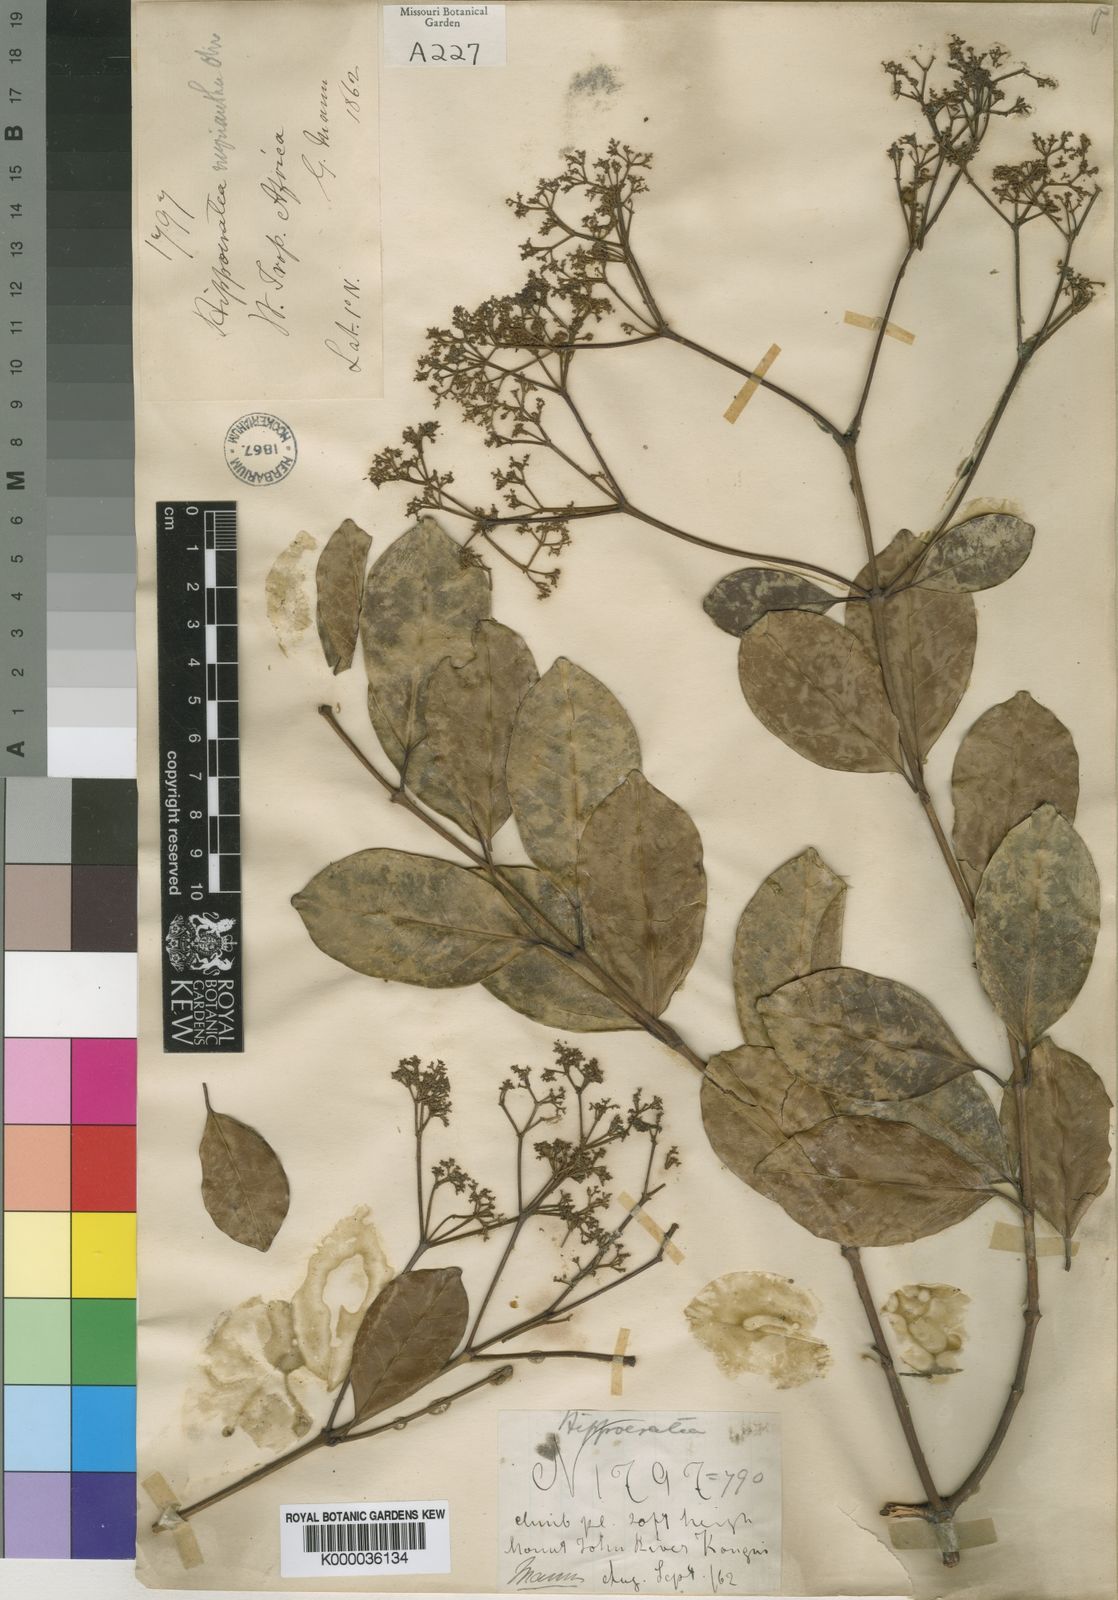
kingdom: Plantae
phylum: Tracheophyta
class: Magnoliopsida
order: Celastrales
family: Celastraceae
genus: Hippocratea
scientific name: Hippocratea myriantha
